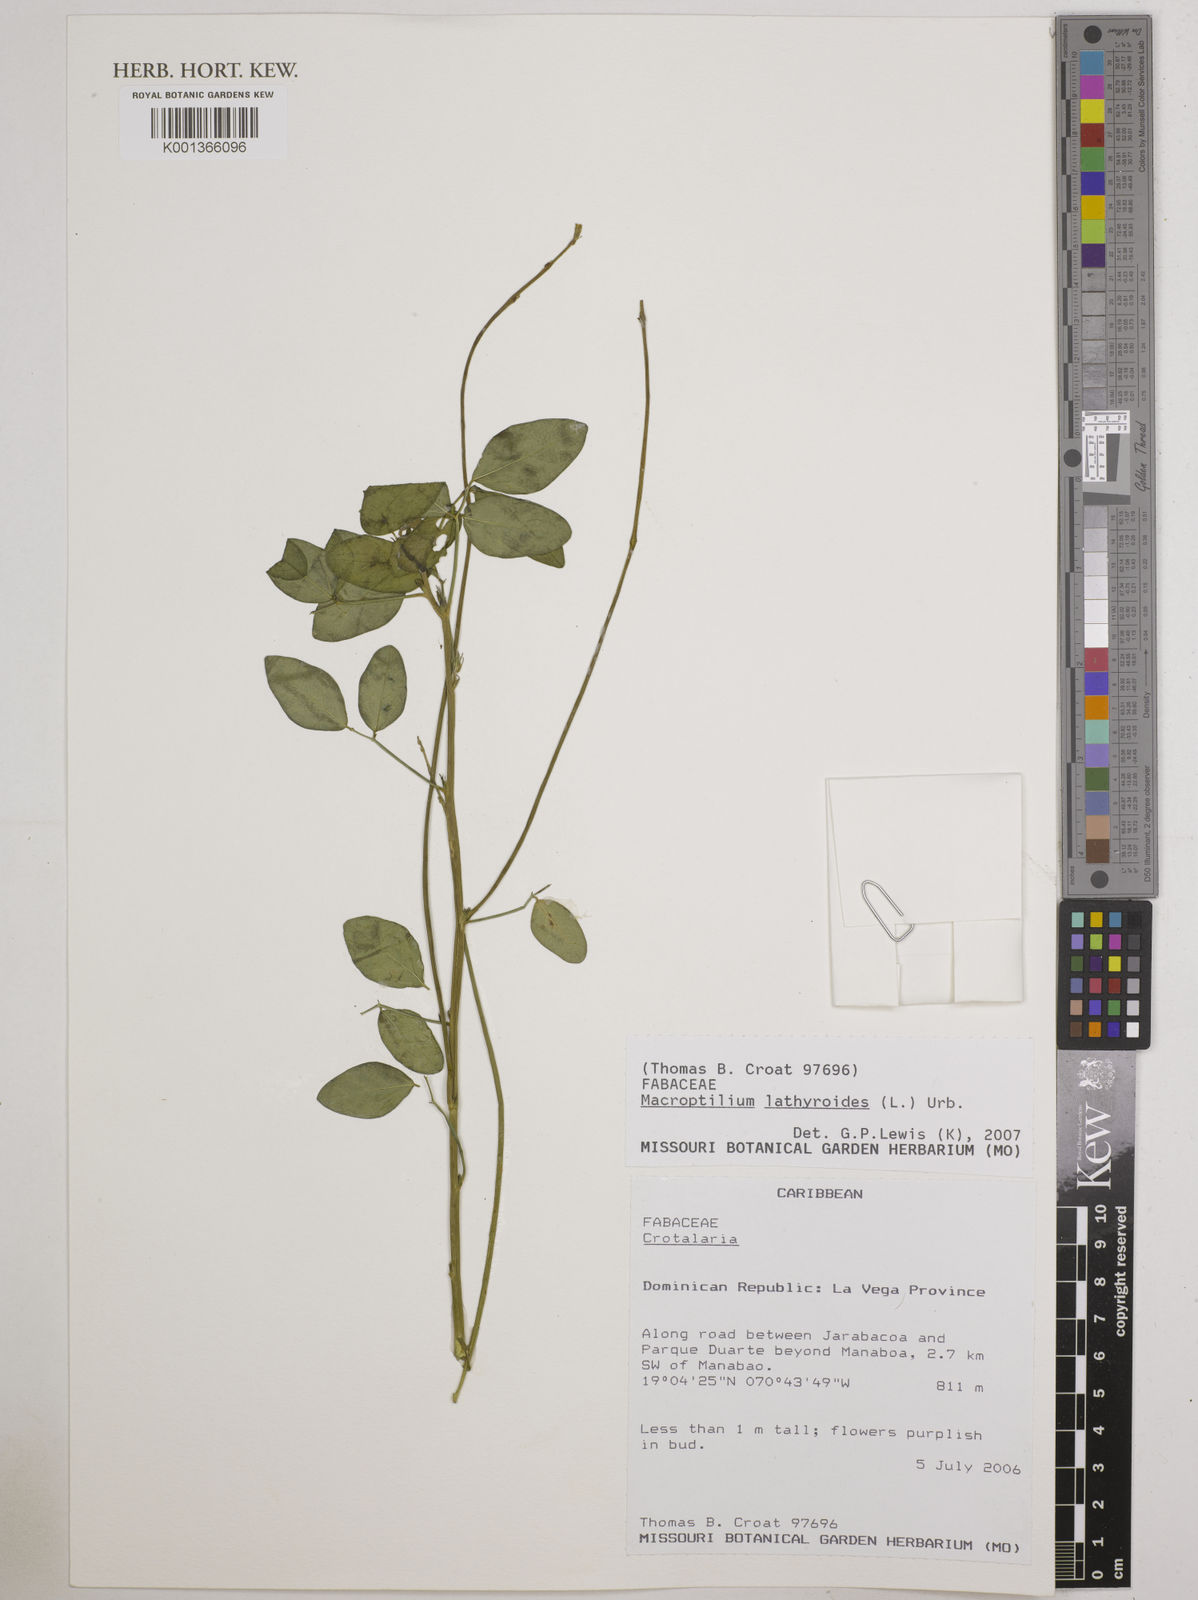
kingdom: Plantae
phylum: Tracheophyta
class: Magnoliopsida
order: Fabales
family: Fabaceae
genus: Macroptilium
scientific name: Macroptilium lathyroides
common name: Wild bushbean
